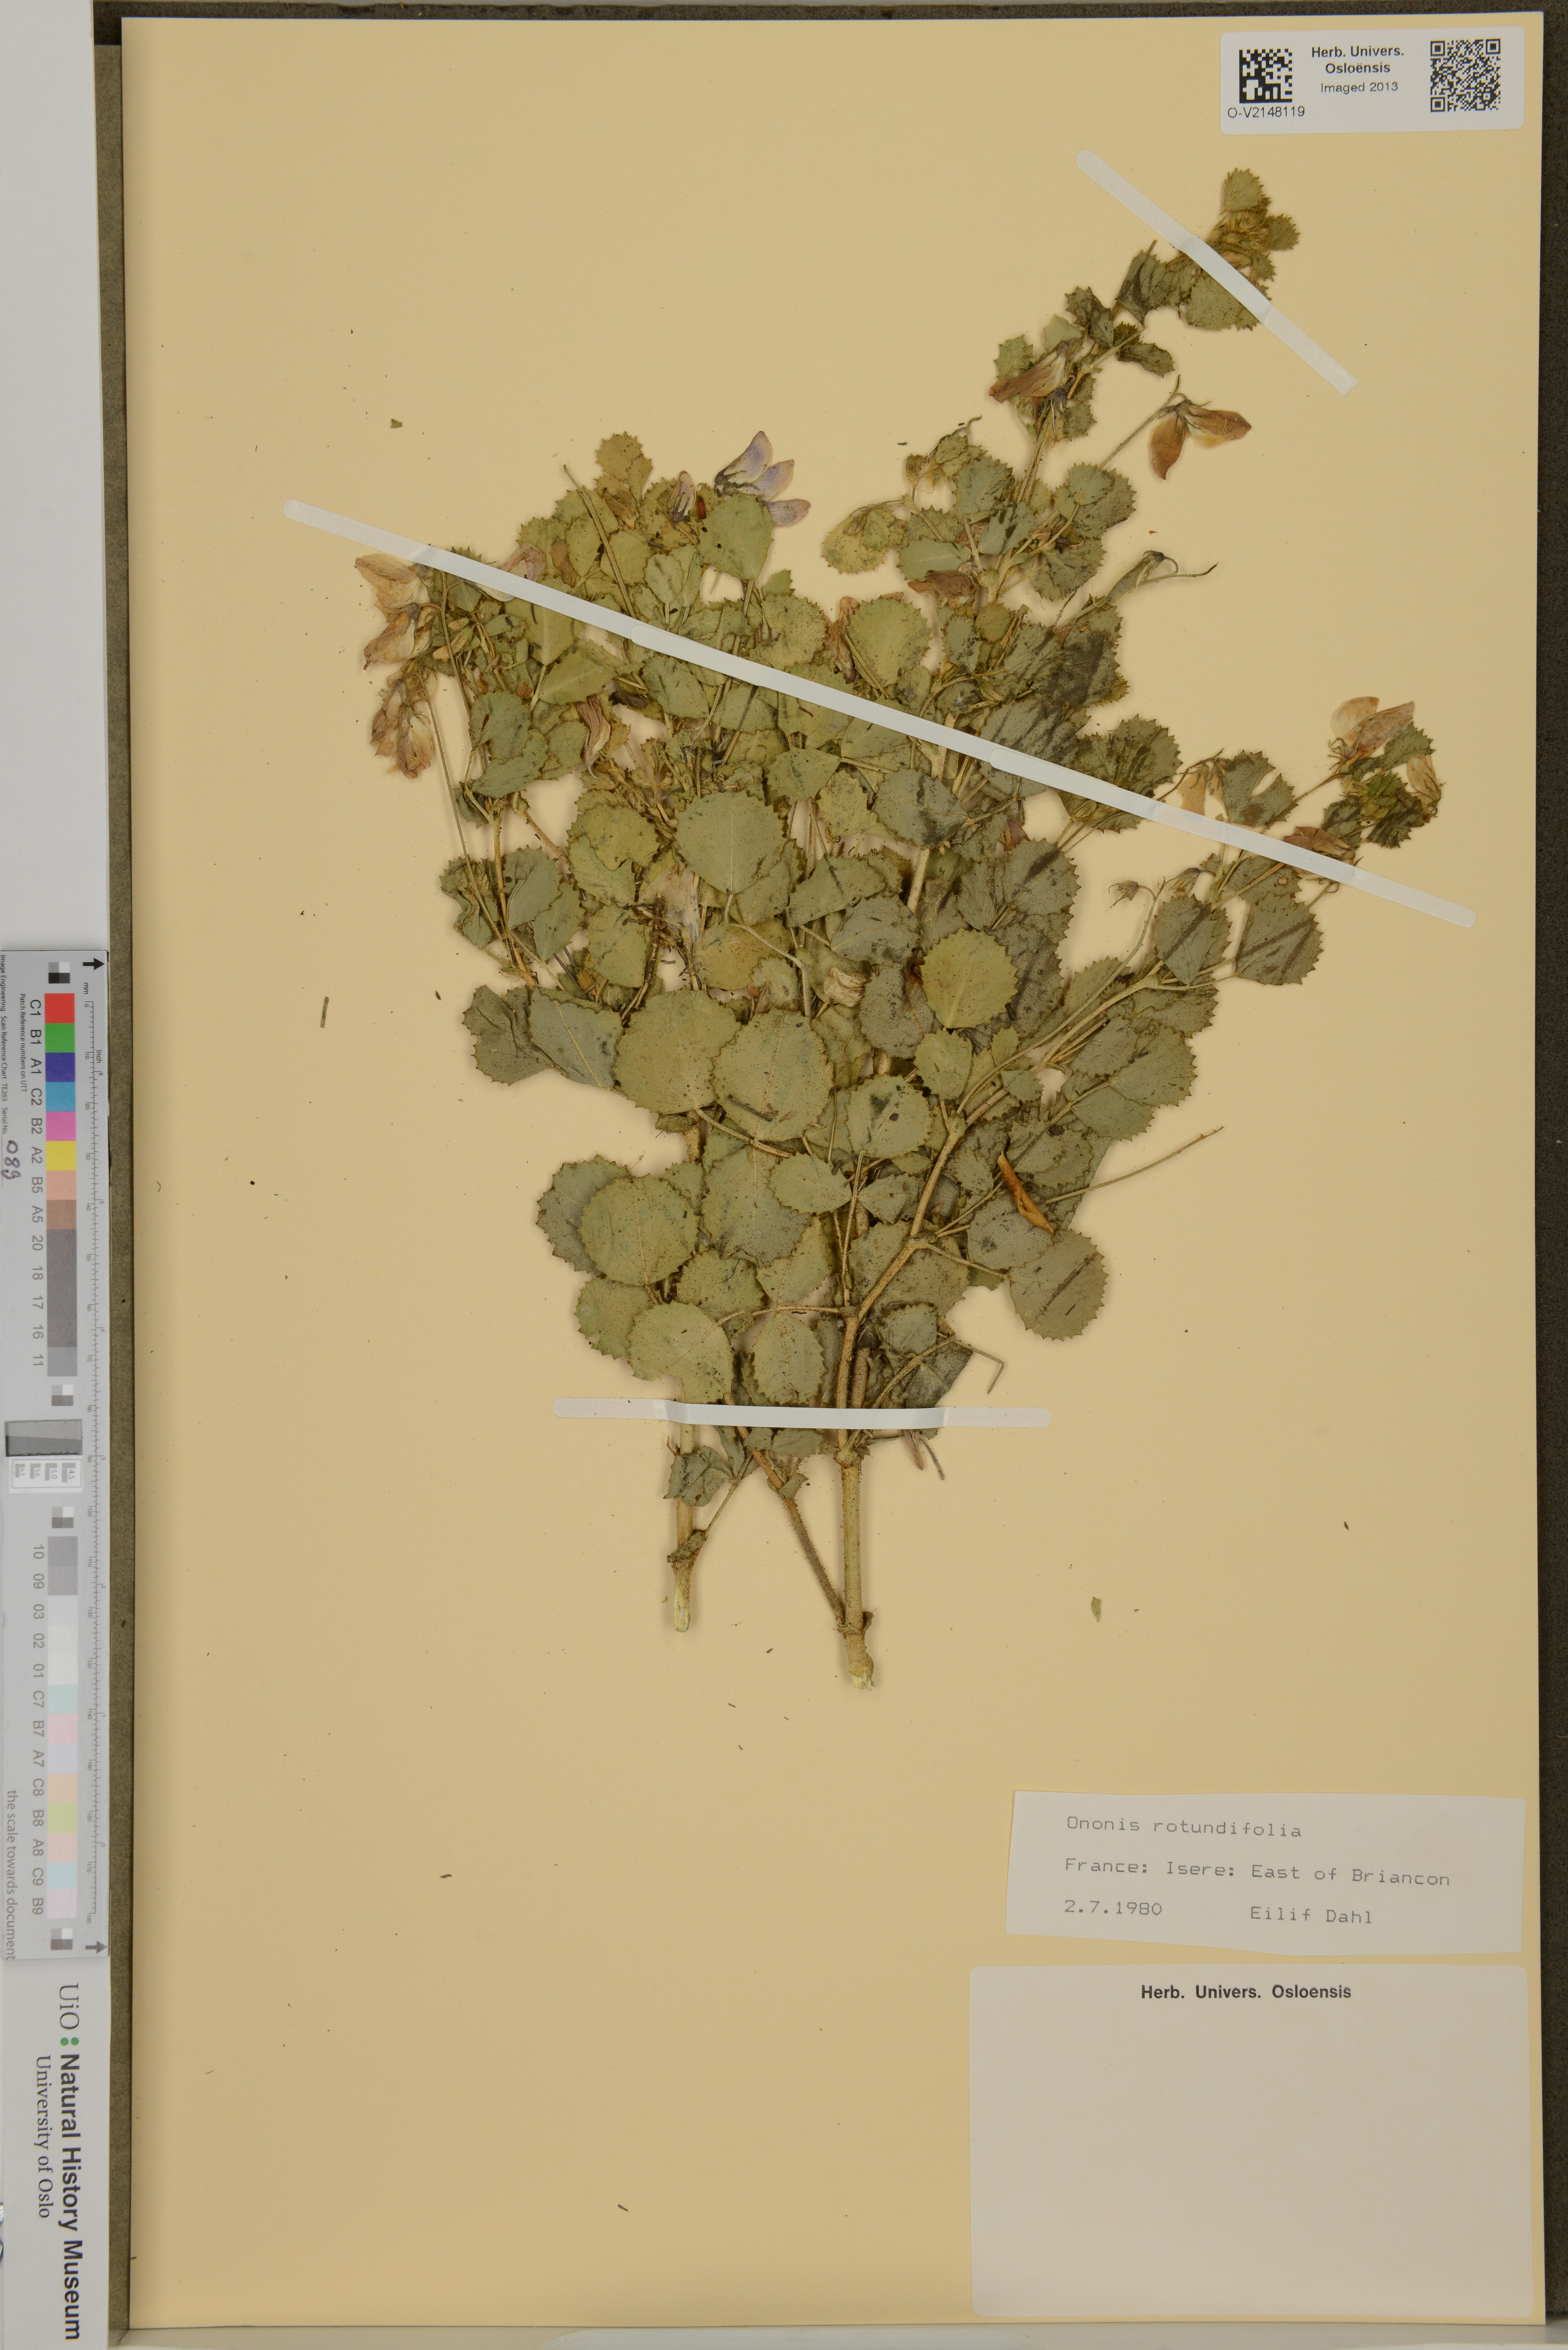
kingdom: Plantae
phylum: Tracheophyta
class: Magnoliopsida
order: Fabales
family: Fabaceae
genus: Ononis
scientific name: Ononis rotundifolia
